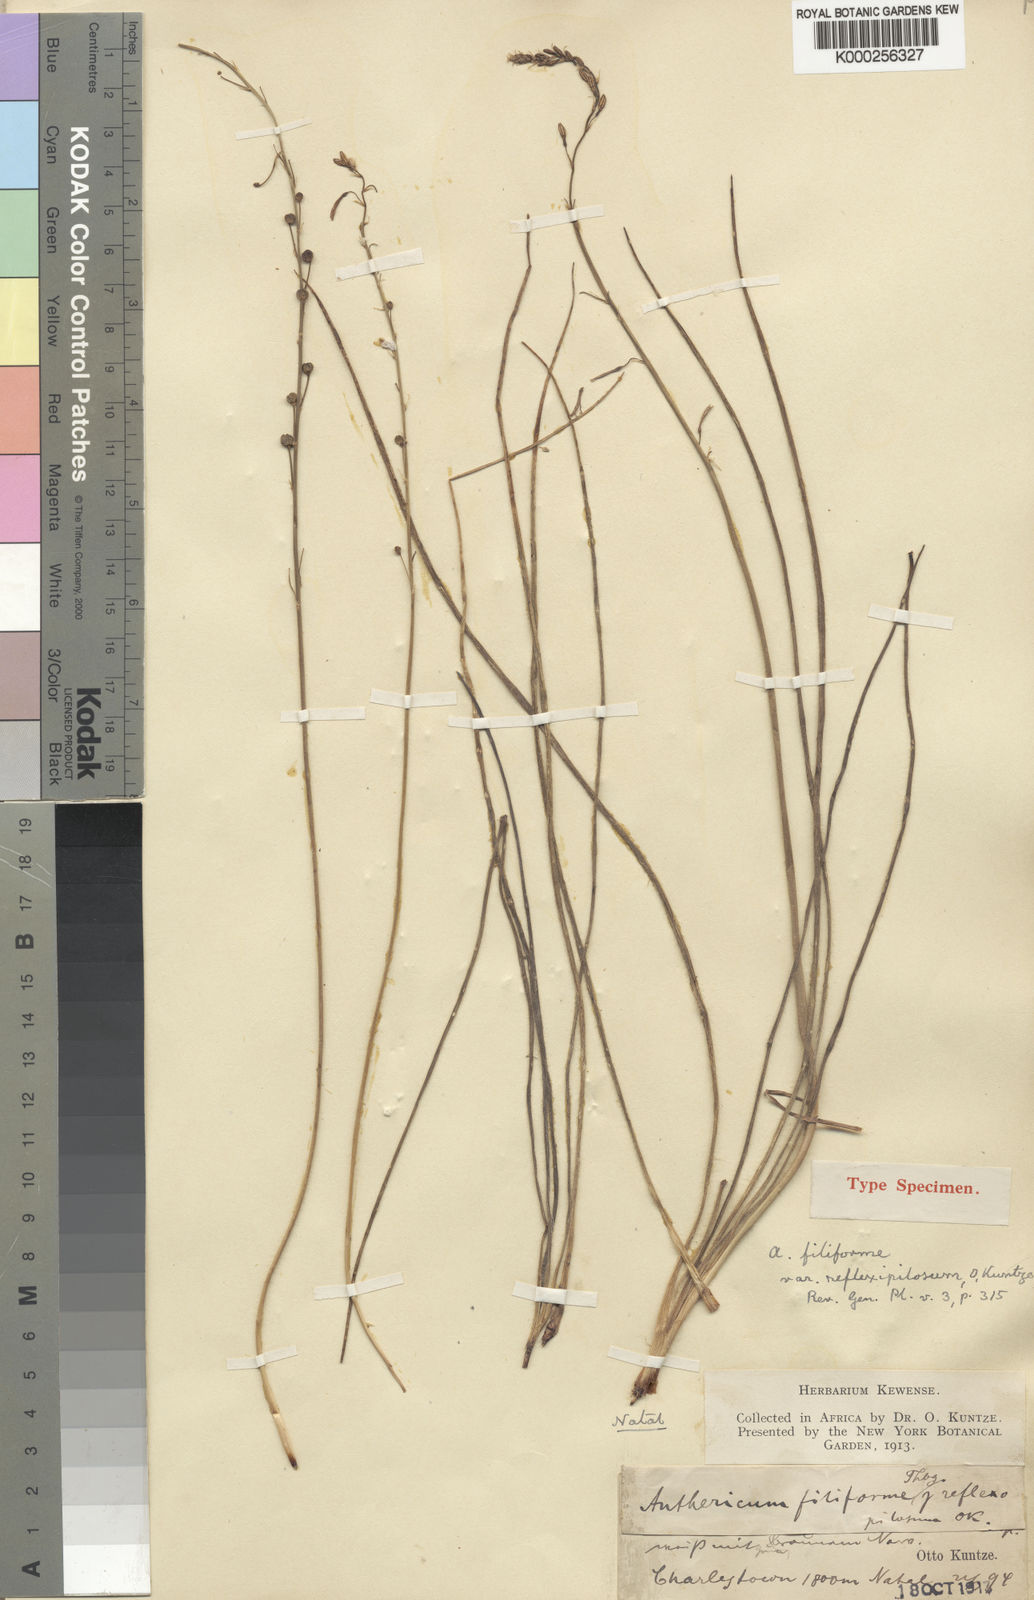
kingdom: Plantae
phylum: Tracheophyta
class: Liliopsida
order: Asparagales
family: Asphodelaceae
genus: Trachyandra
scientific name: Trachyandra saltii
